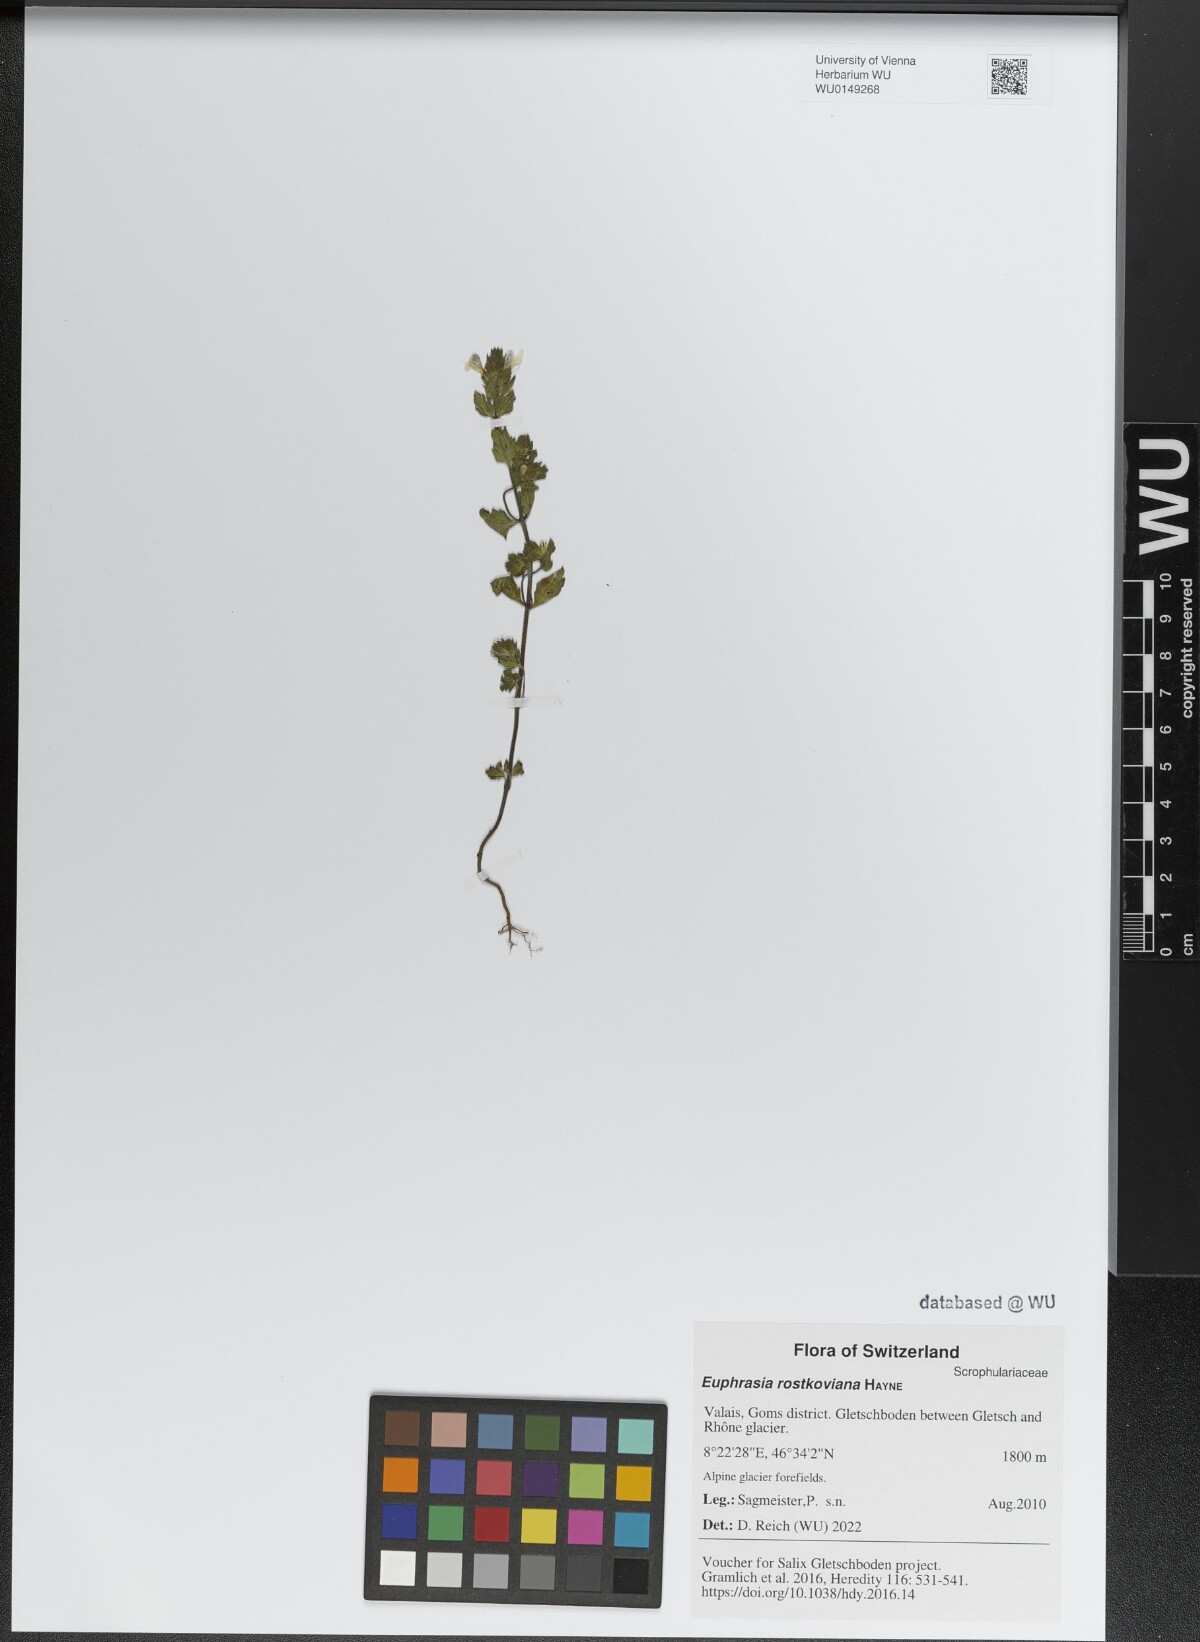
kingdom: Plantae
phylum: Tracheophyta
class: Magnoliopsida
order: Lamiales
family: Orobanchaceae
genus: Euphrasia
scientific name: Euphrasia officinalis
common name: Eyebright
